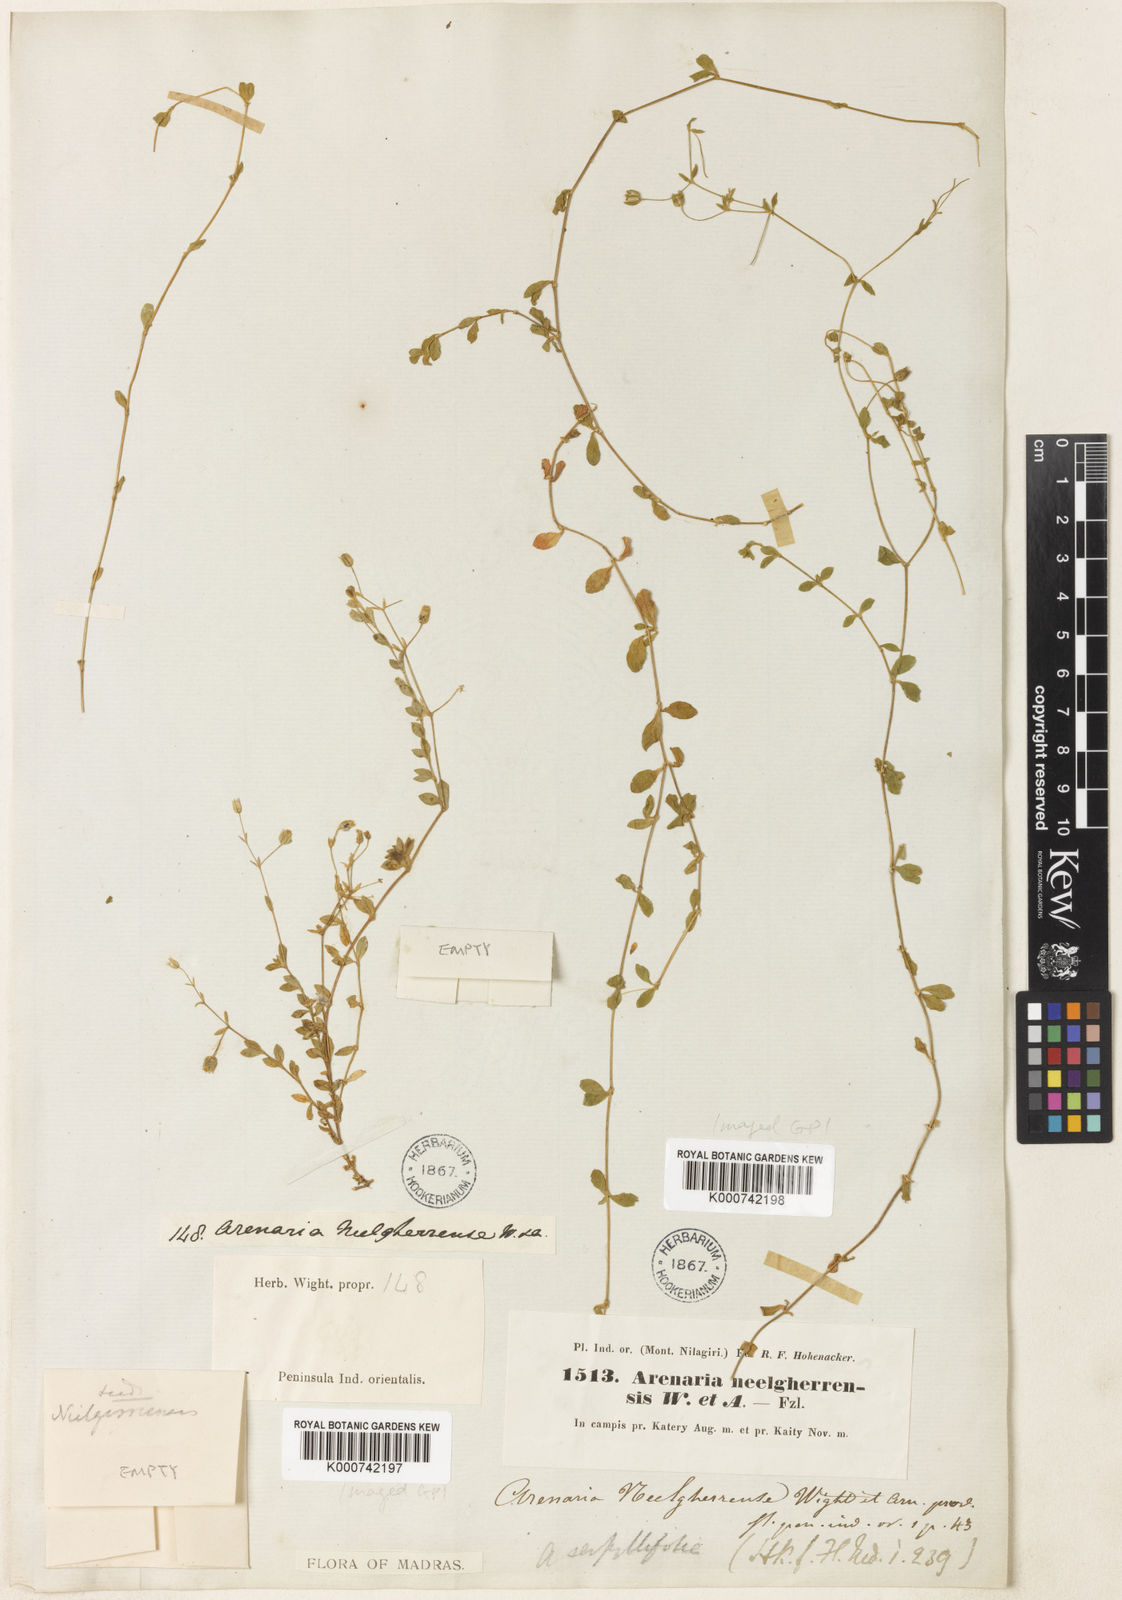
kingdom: Plantae
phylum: Tracheophyta
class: Magnoliopsida
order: Caryophyllales
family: Caryophyllaceae
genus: Arenaria
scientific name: Arenaria neelgherrensis
